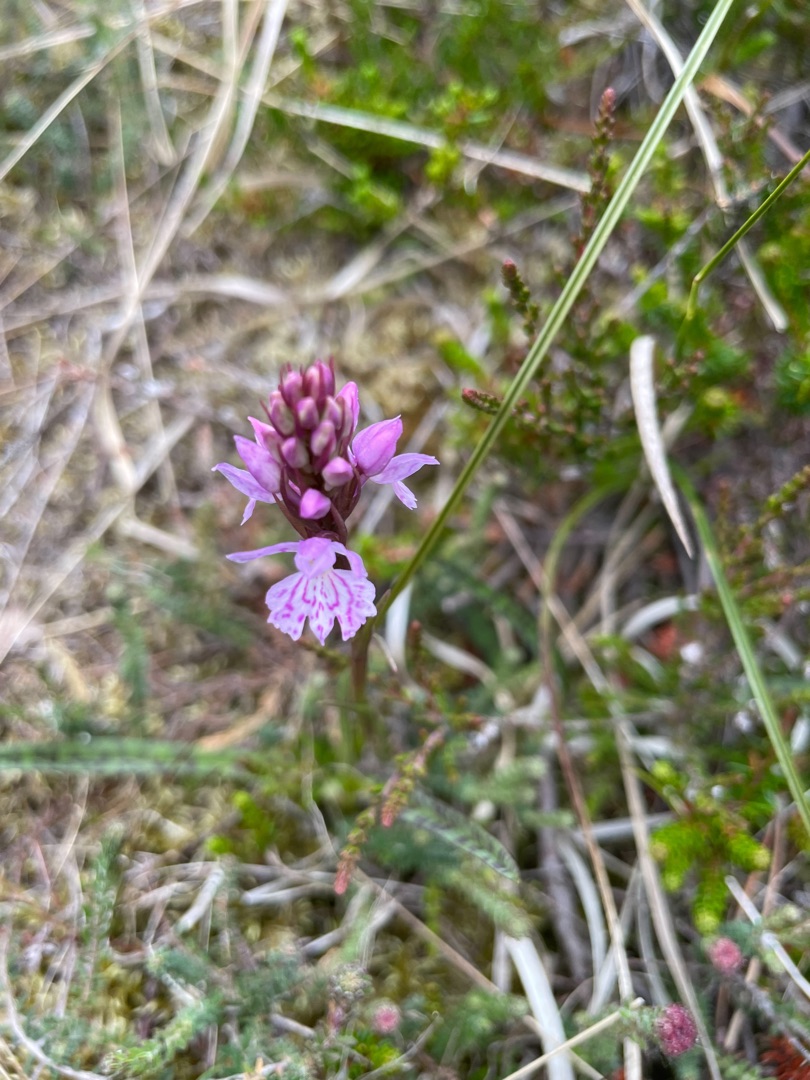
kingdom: Plantae
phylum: Tracheophyta
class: Liliopsida
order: Asparagales
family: Orchidaceae
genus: Dactylorhiza
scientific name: Dactylorhiza maculata
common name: Plettet gøgeurt
